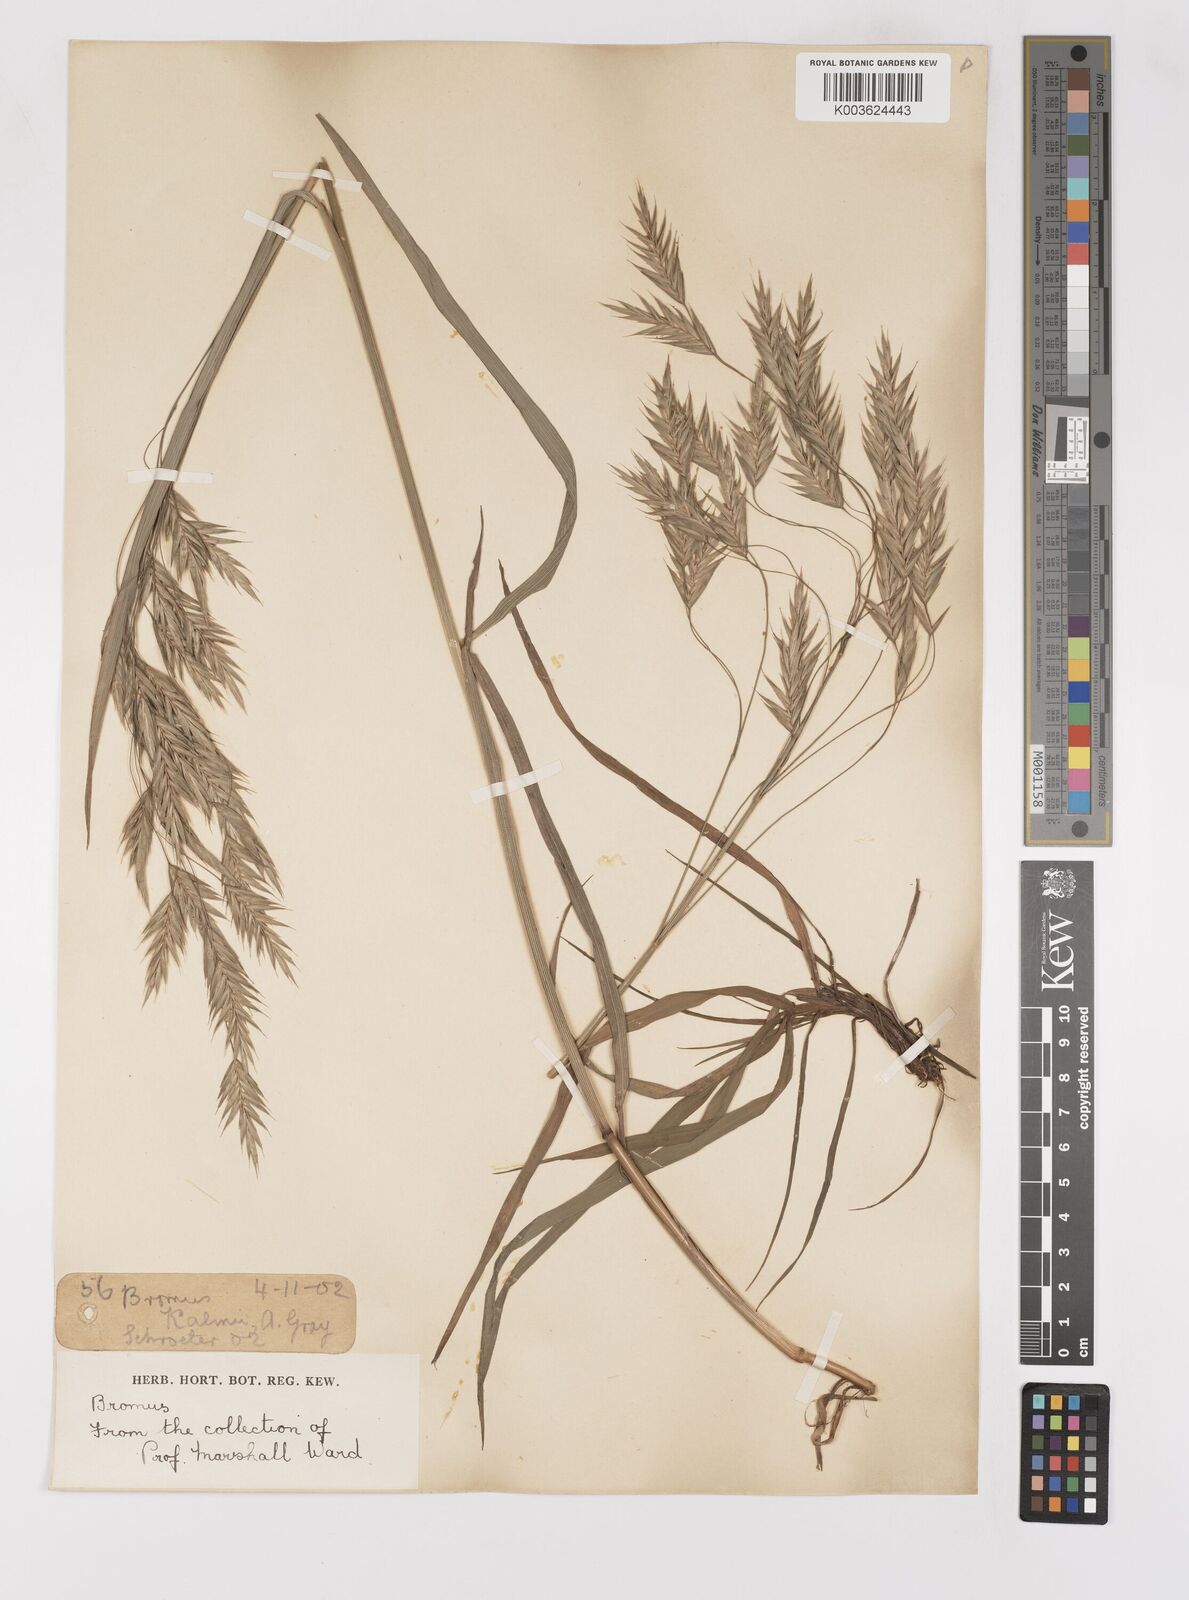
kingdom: Plantae
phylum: Tracheophyta
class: Liliopsida
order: Poales
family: Poaceae
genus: Bromus
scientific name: Bromus
